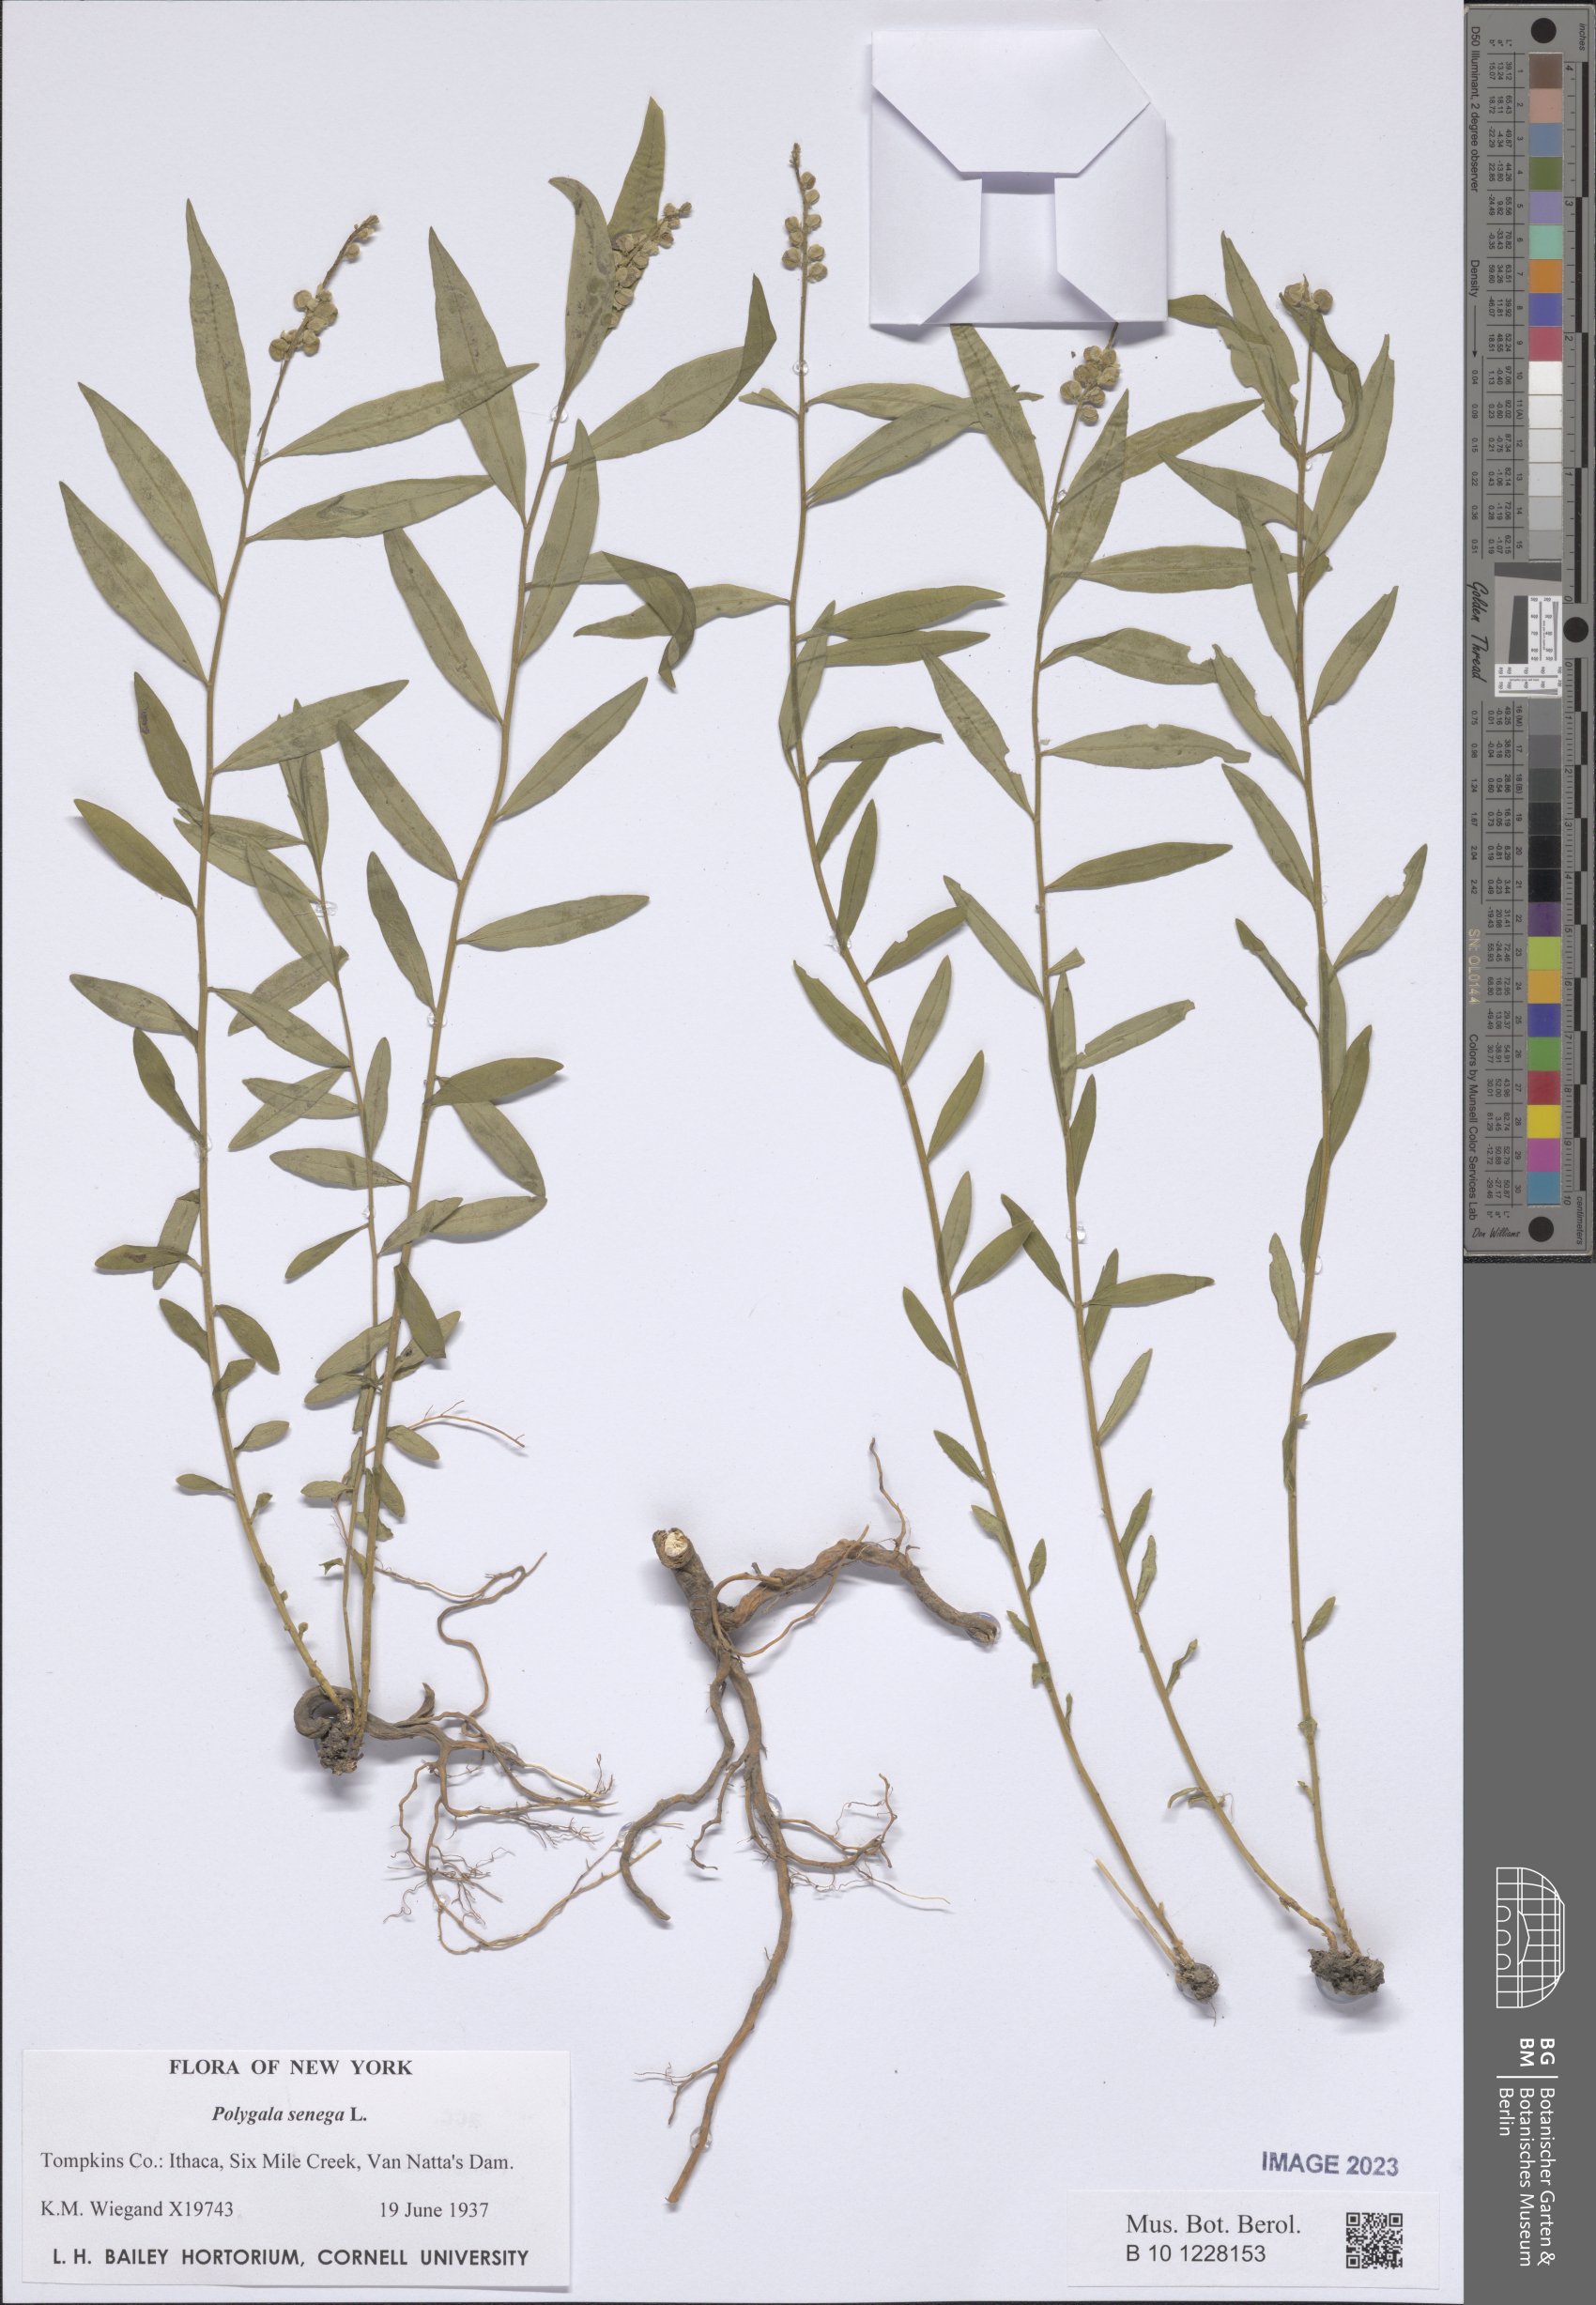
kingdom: Plantae
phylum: Tracheophyta
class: Magnoliopsida
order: Fabales
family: Polygalaceae
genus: Polygala
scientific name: Polygala senega
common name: Seneca snakeroot
